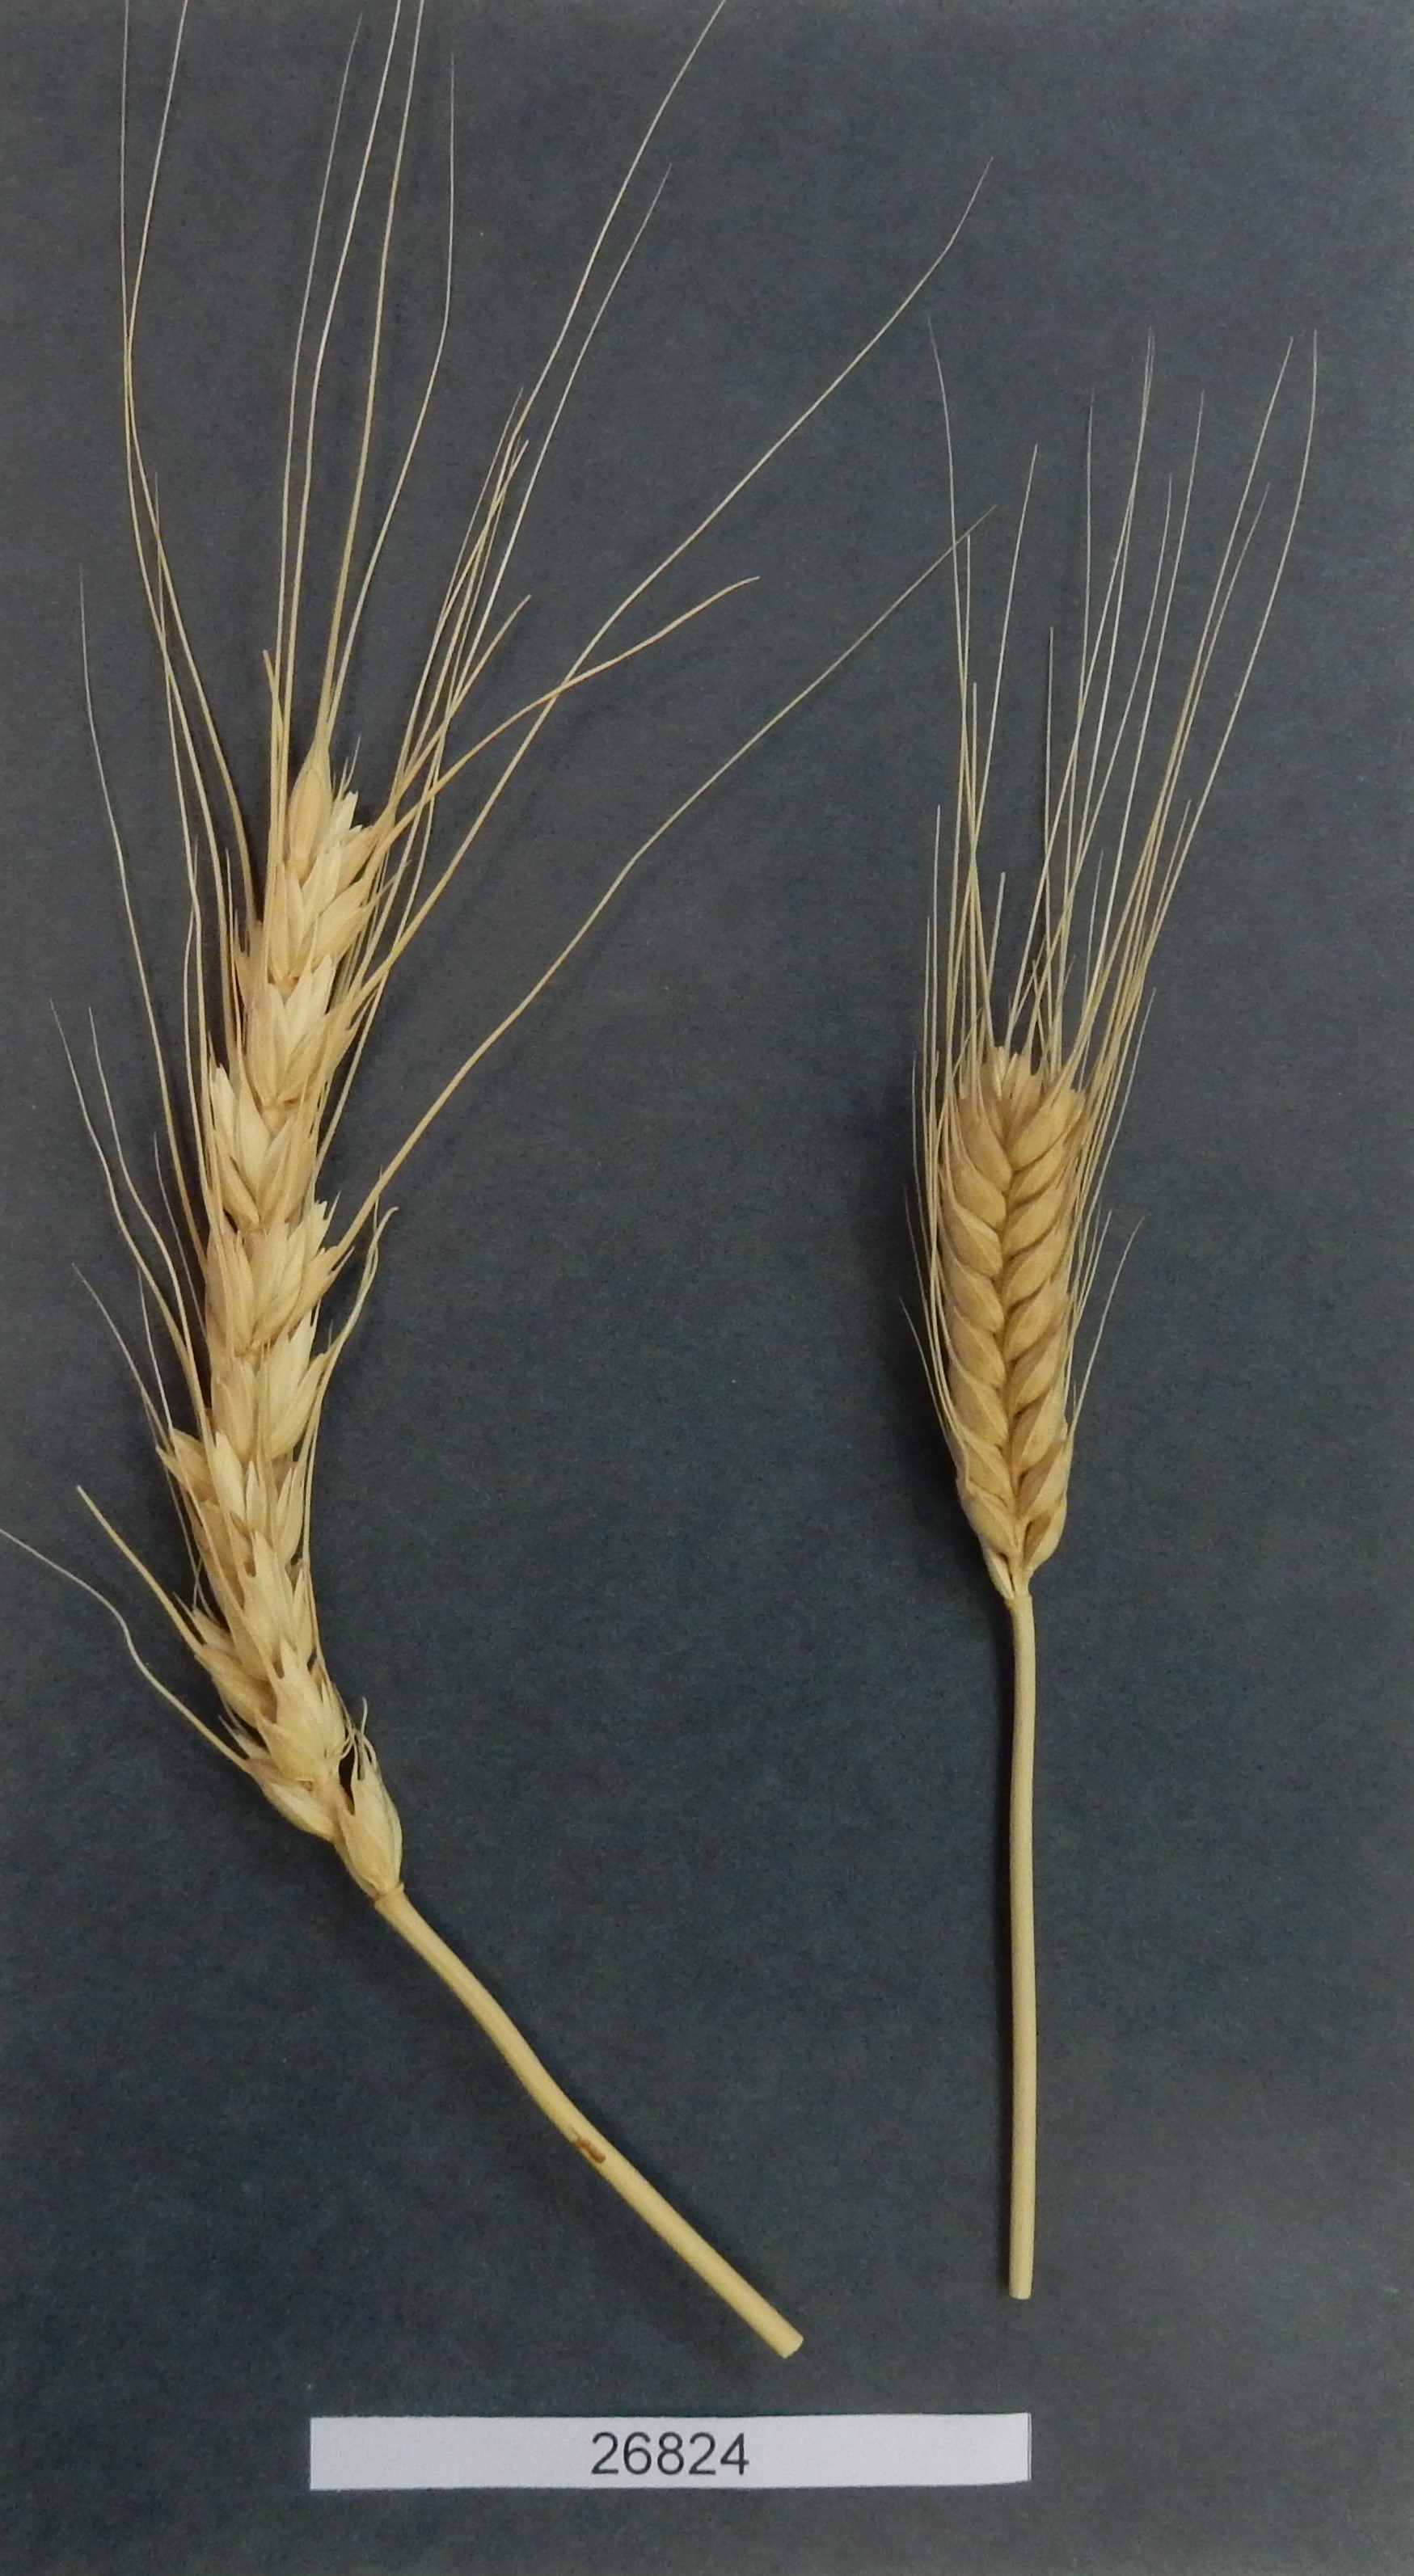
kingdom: Plantae
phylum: Tracheophyta
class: Liliopsida
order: Poales
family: Poaceae
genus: Triticum
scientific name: Triticum
